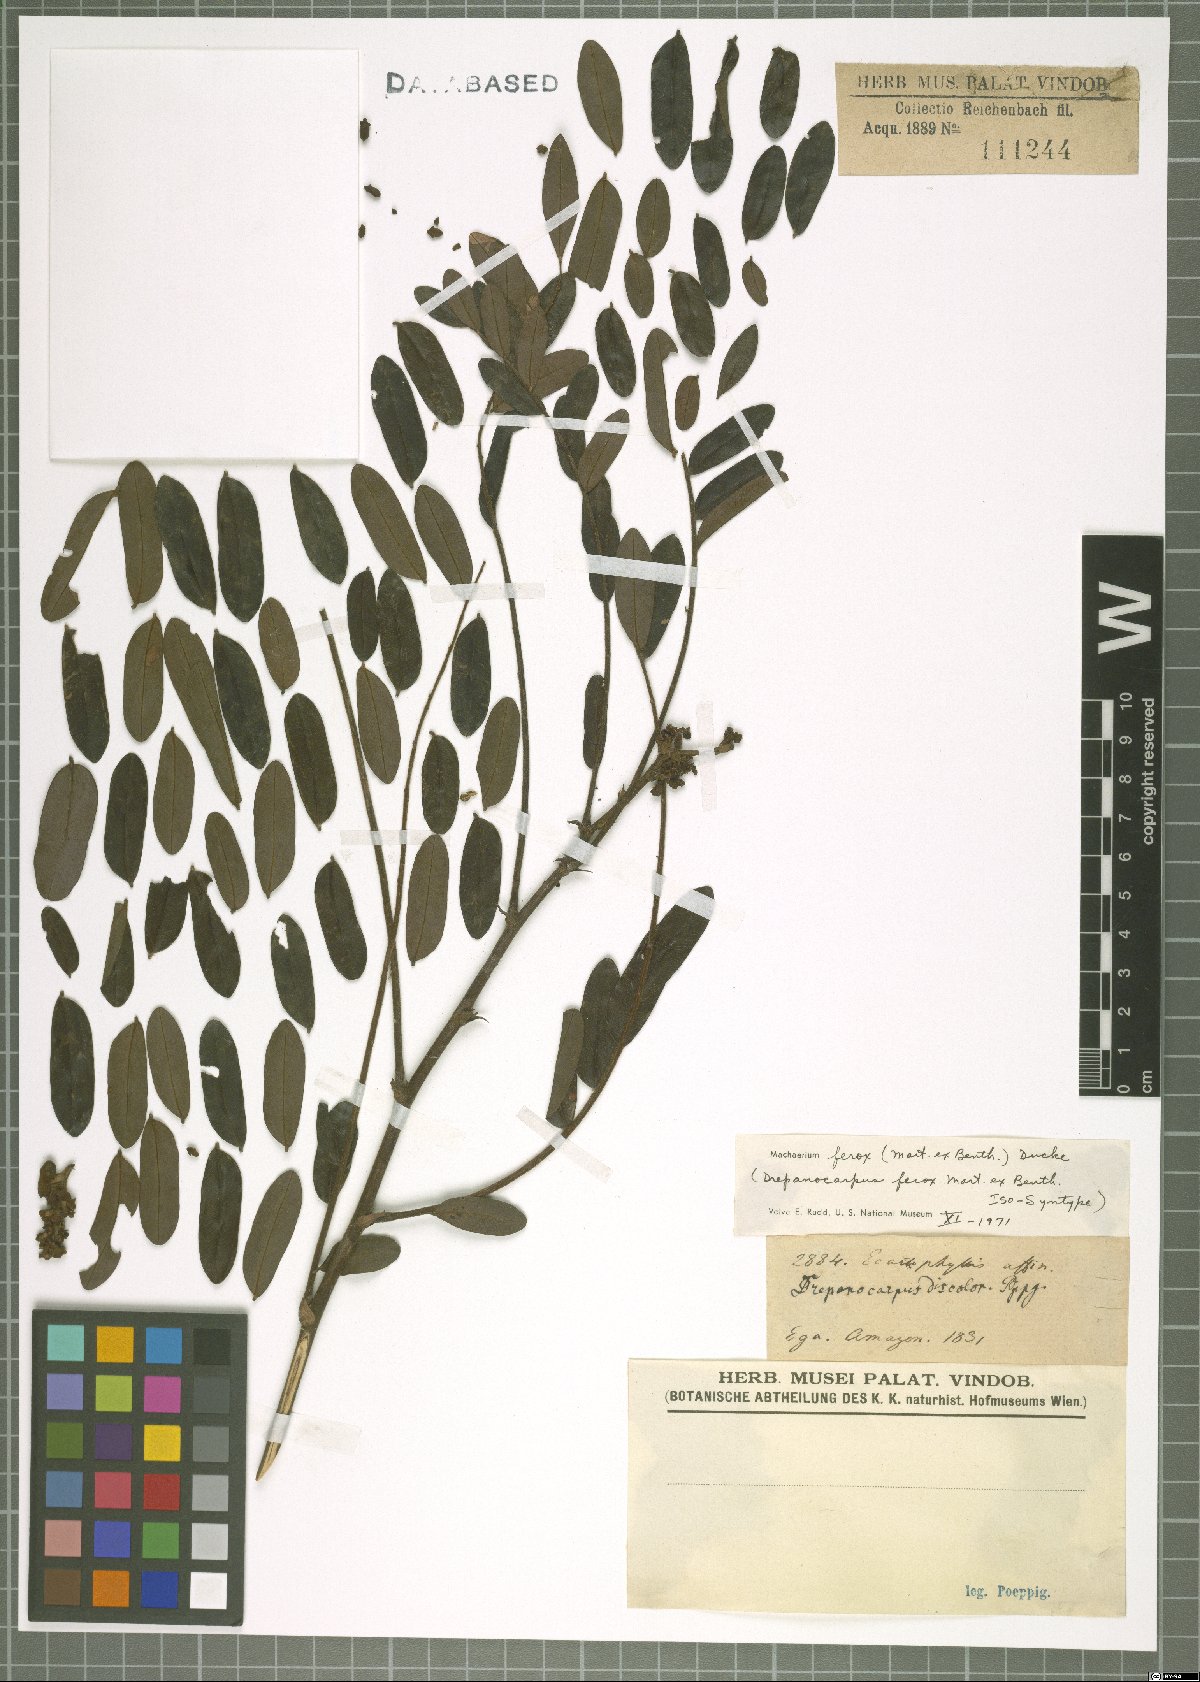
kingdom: Plantae
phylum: Tracheophyta
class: Magnoliopsida
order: Fabales
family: Fabaceae
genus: Machaerium
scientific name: Machaerium ferox
